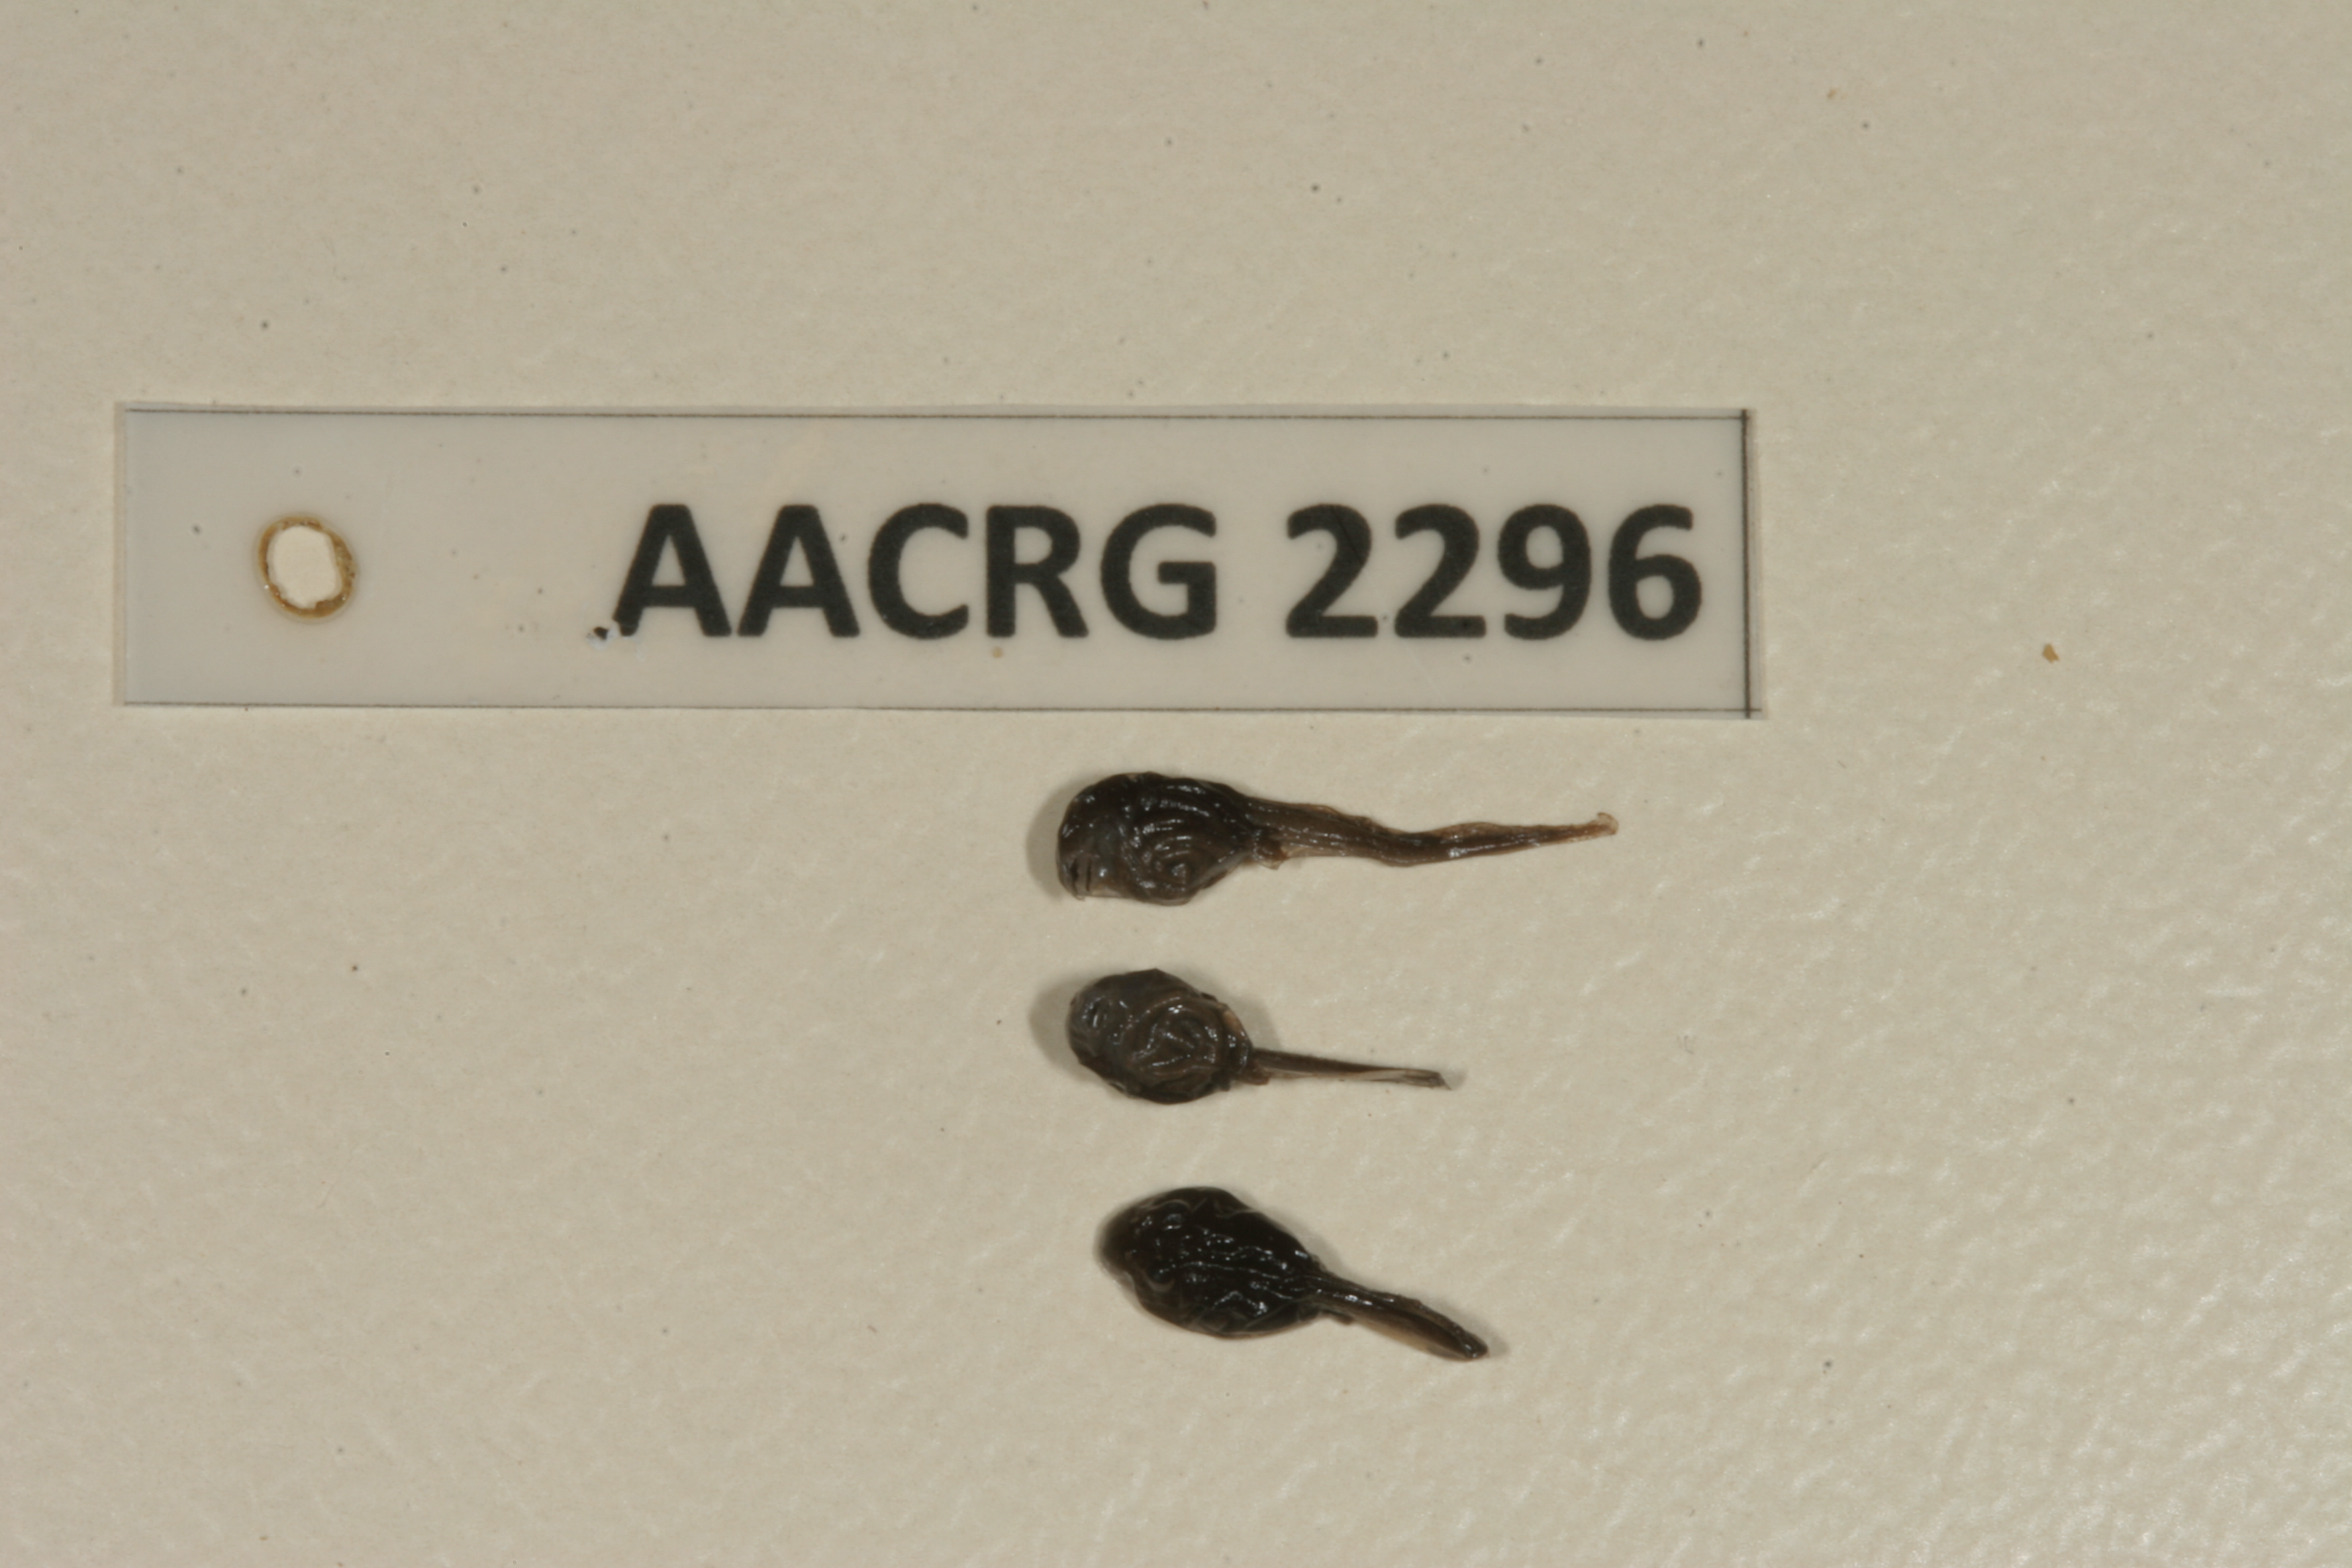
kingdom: Animalia
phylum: Chordata
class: Amphibia
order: Anura
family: Bufonidae
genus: Poyntonophrynus
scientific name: Poyntonophrynus fenoulheti
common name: Fenoulhet's toad
